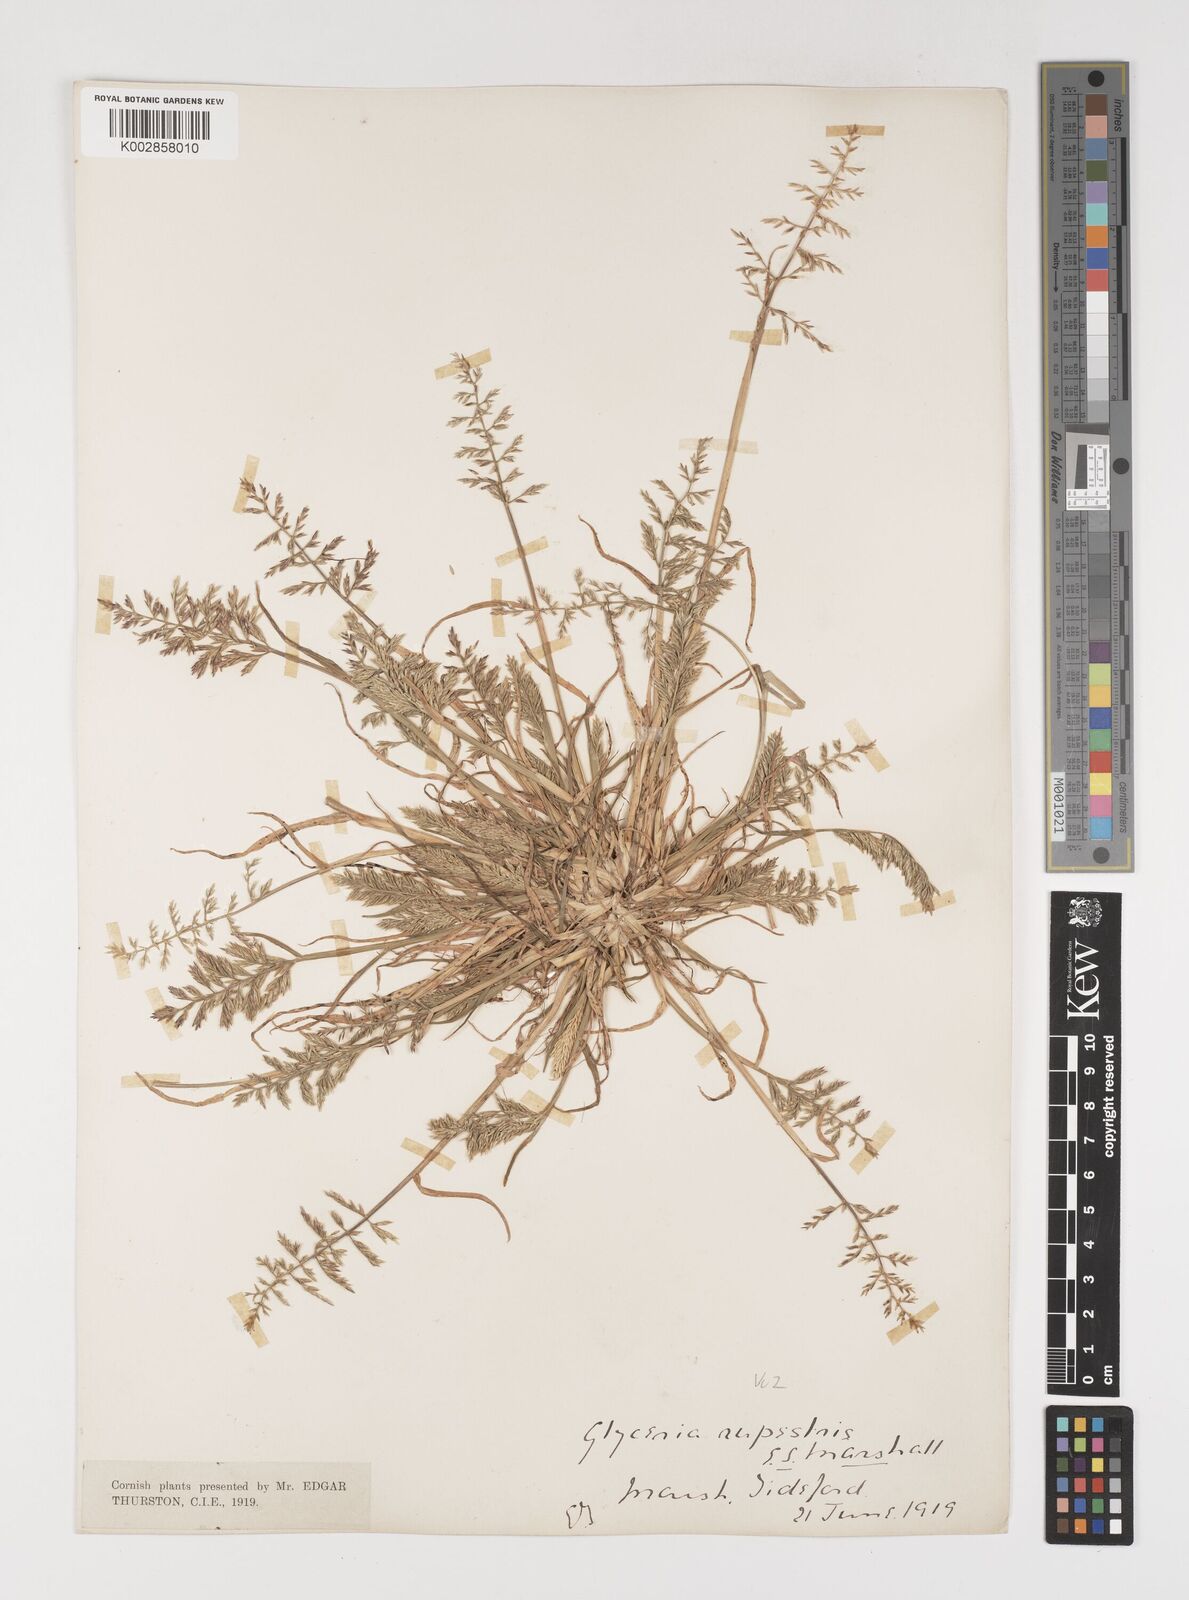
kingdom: Plantae
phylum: Tracheophyta
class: Liliopsida
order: Poales
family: Poaceae
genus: Puccinellia
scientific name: Puccinellia rupestris
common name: Stiff saltmarsh-grass
